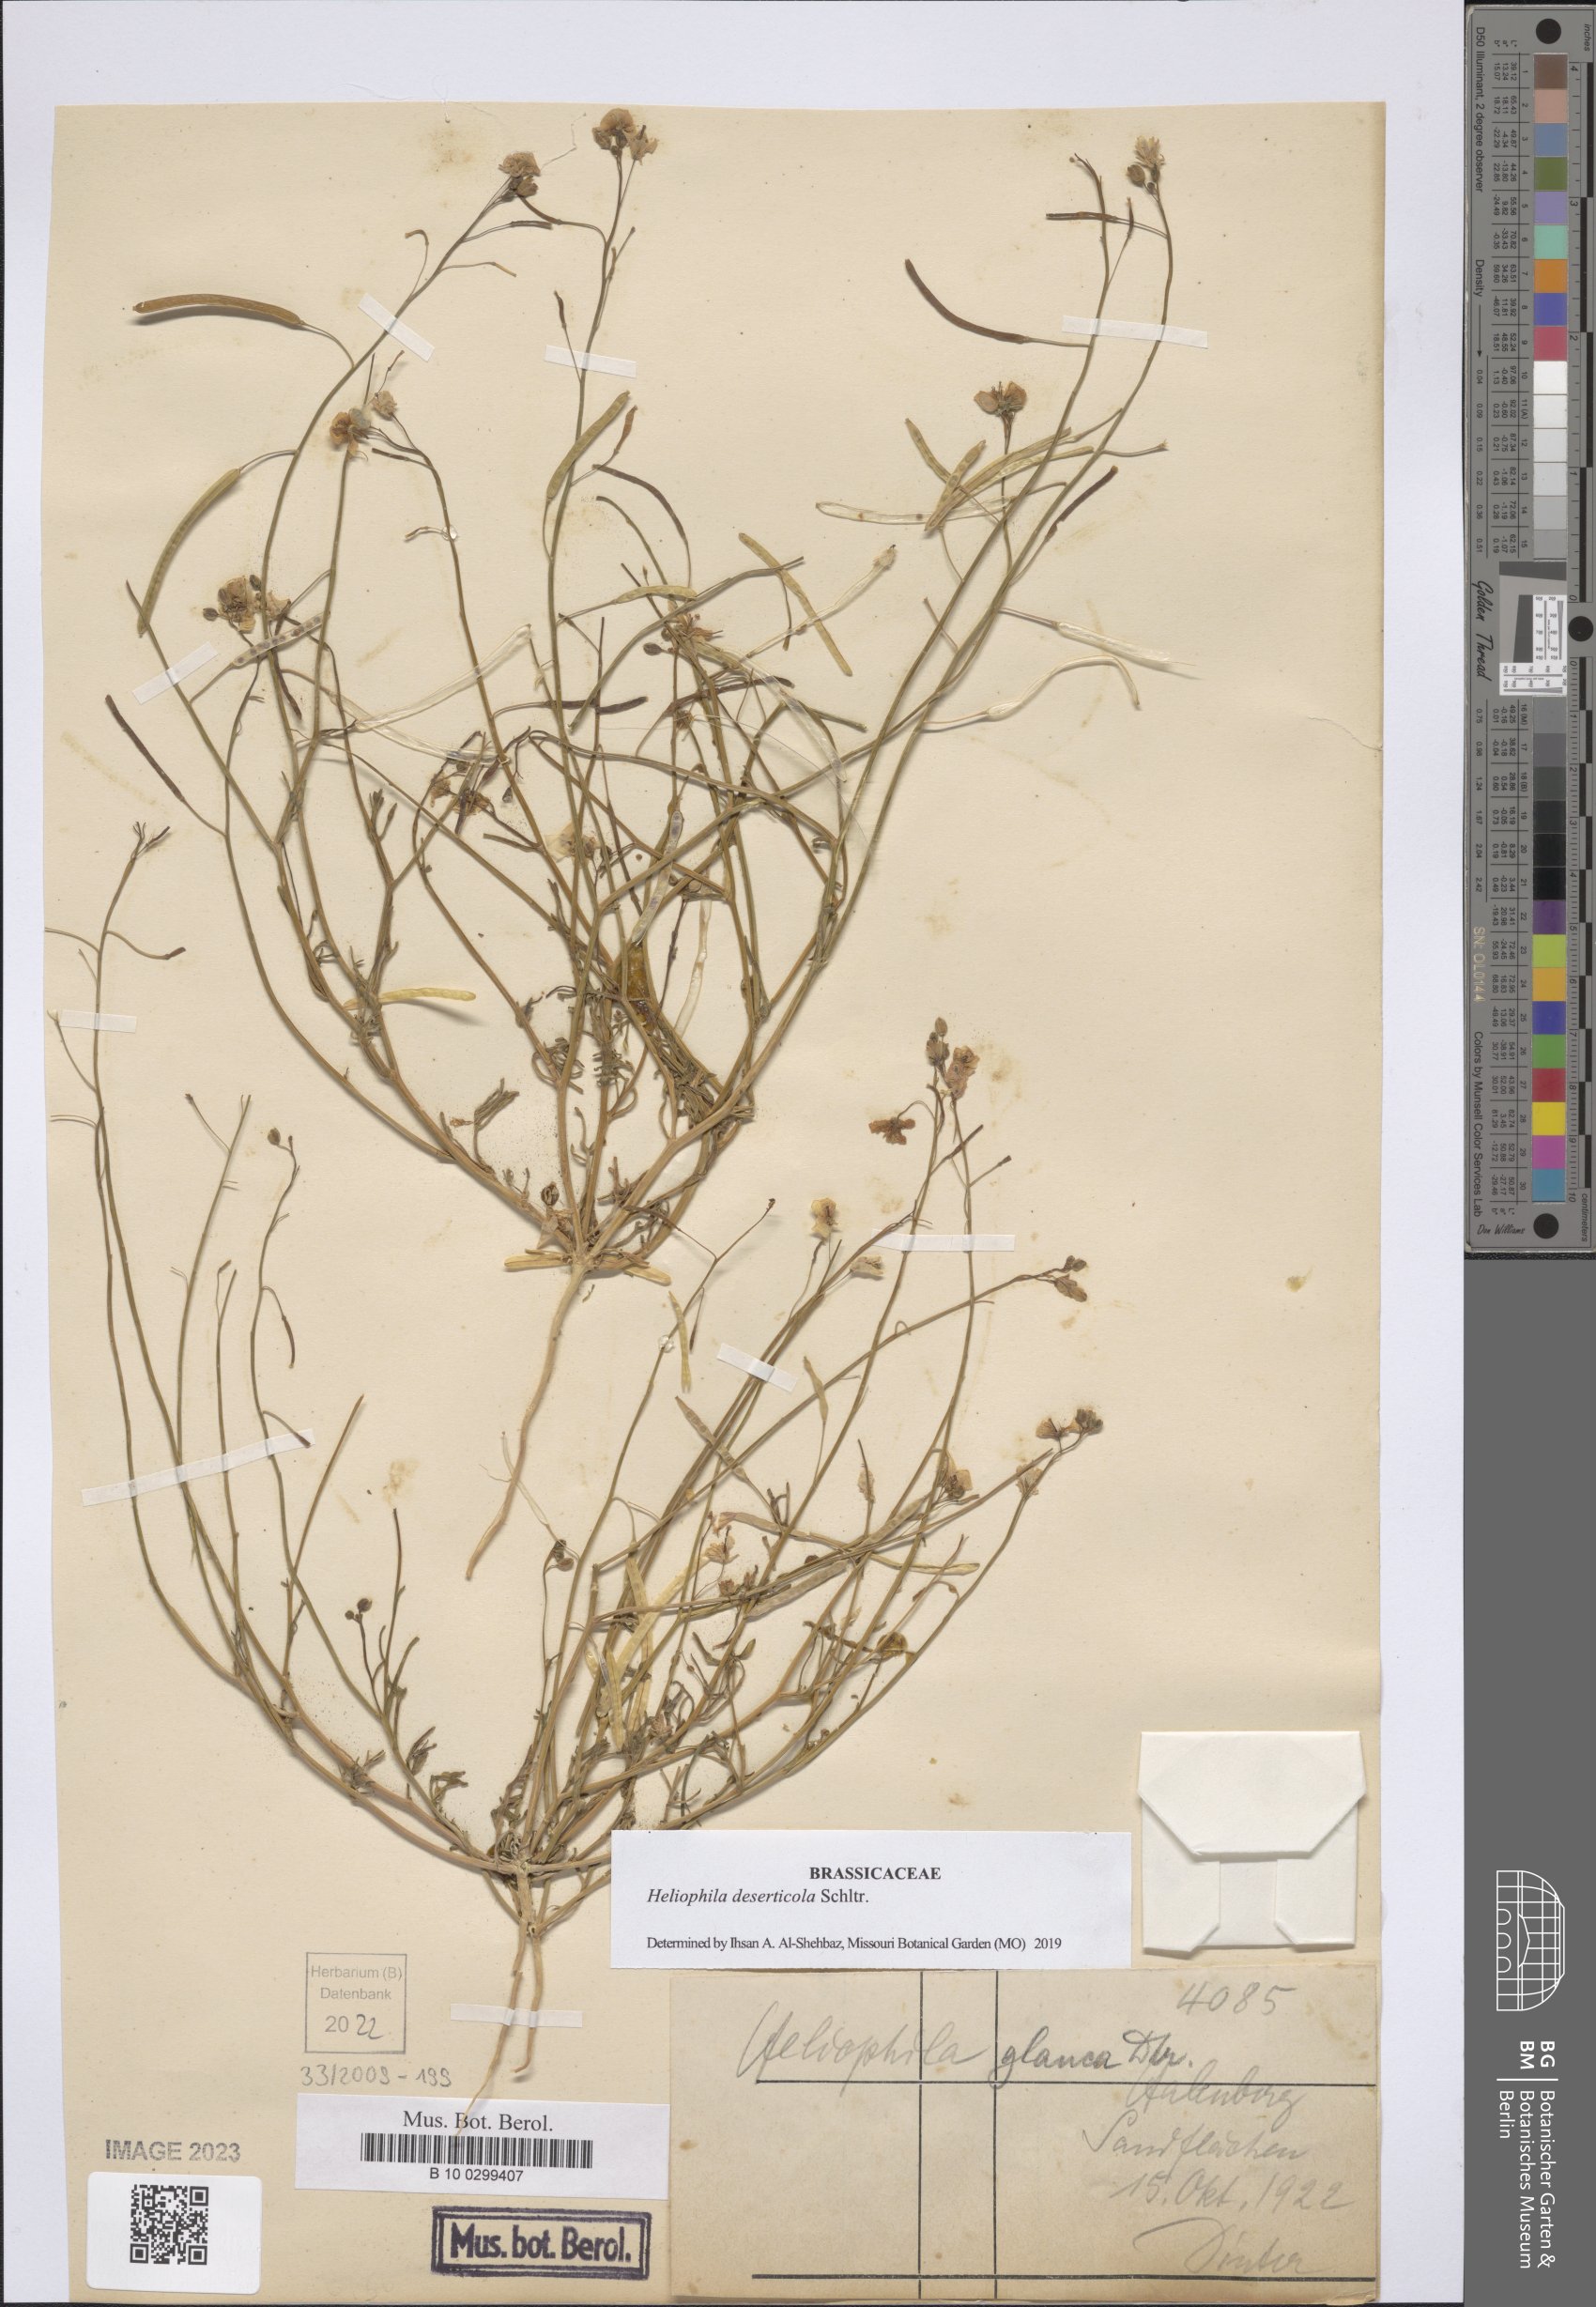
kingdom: Plantae
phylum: Tracheophyta
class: Magnoliopsida
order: Brassicales
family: Brassicaceae
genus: Heliophila
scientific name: Heliophila deserticola
